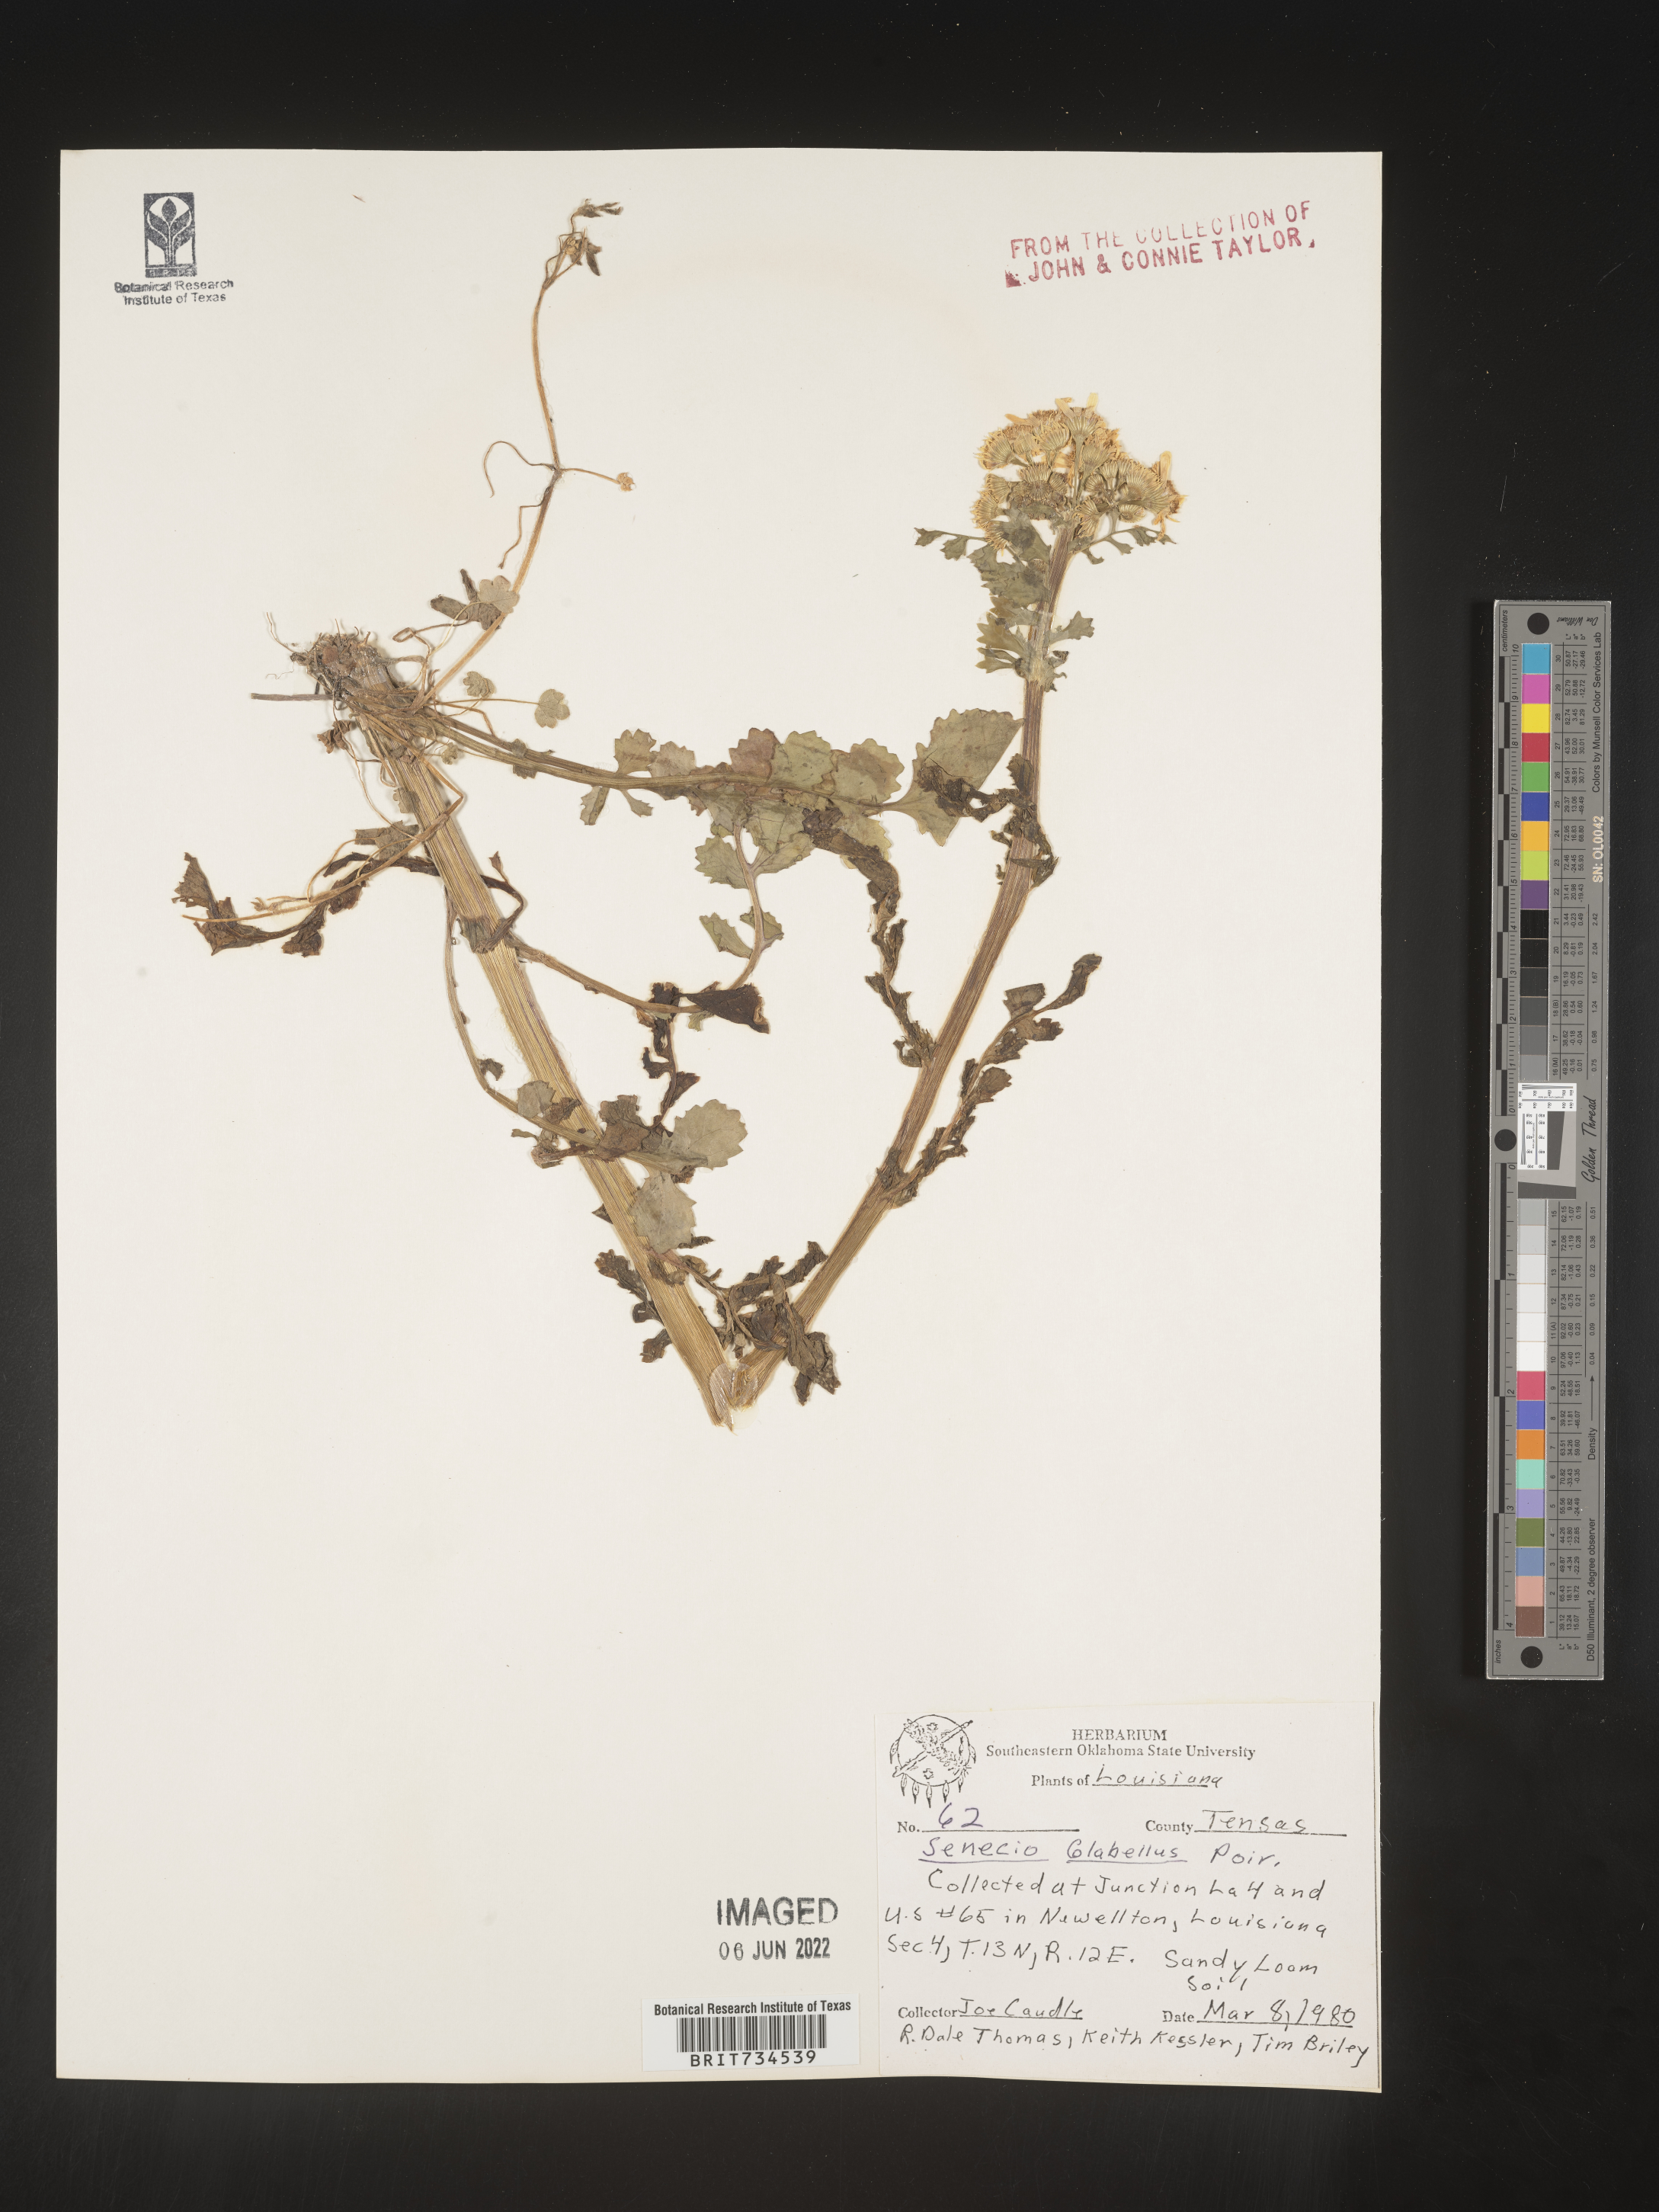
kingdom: Plantae
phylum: Tracheophyta
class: Magnoliopsida
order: Asterales
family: Asteraceae
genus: Packera
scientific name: Packera glabella
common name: Butterweed
